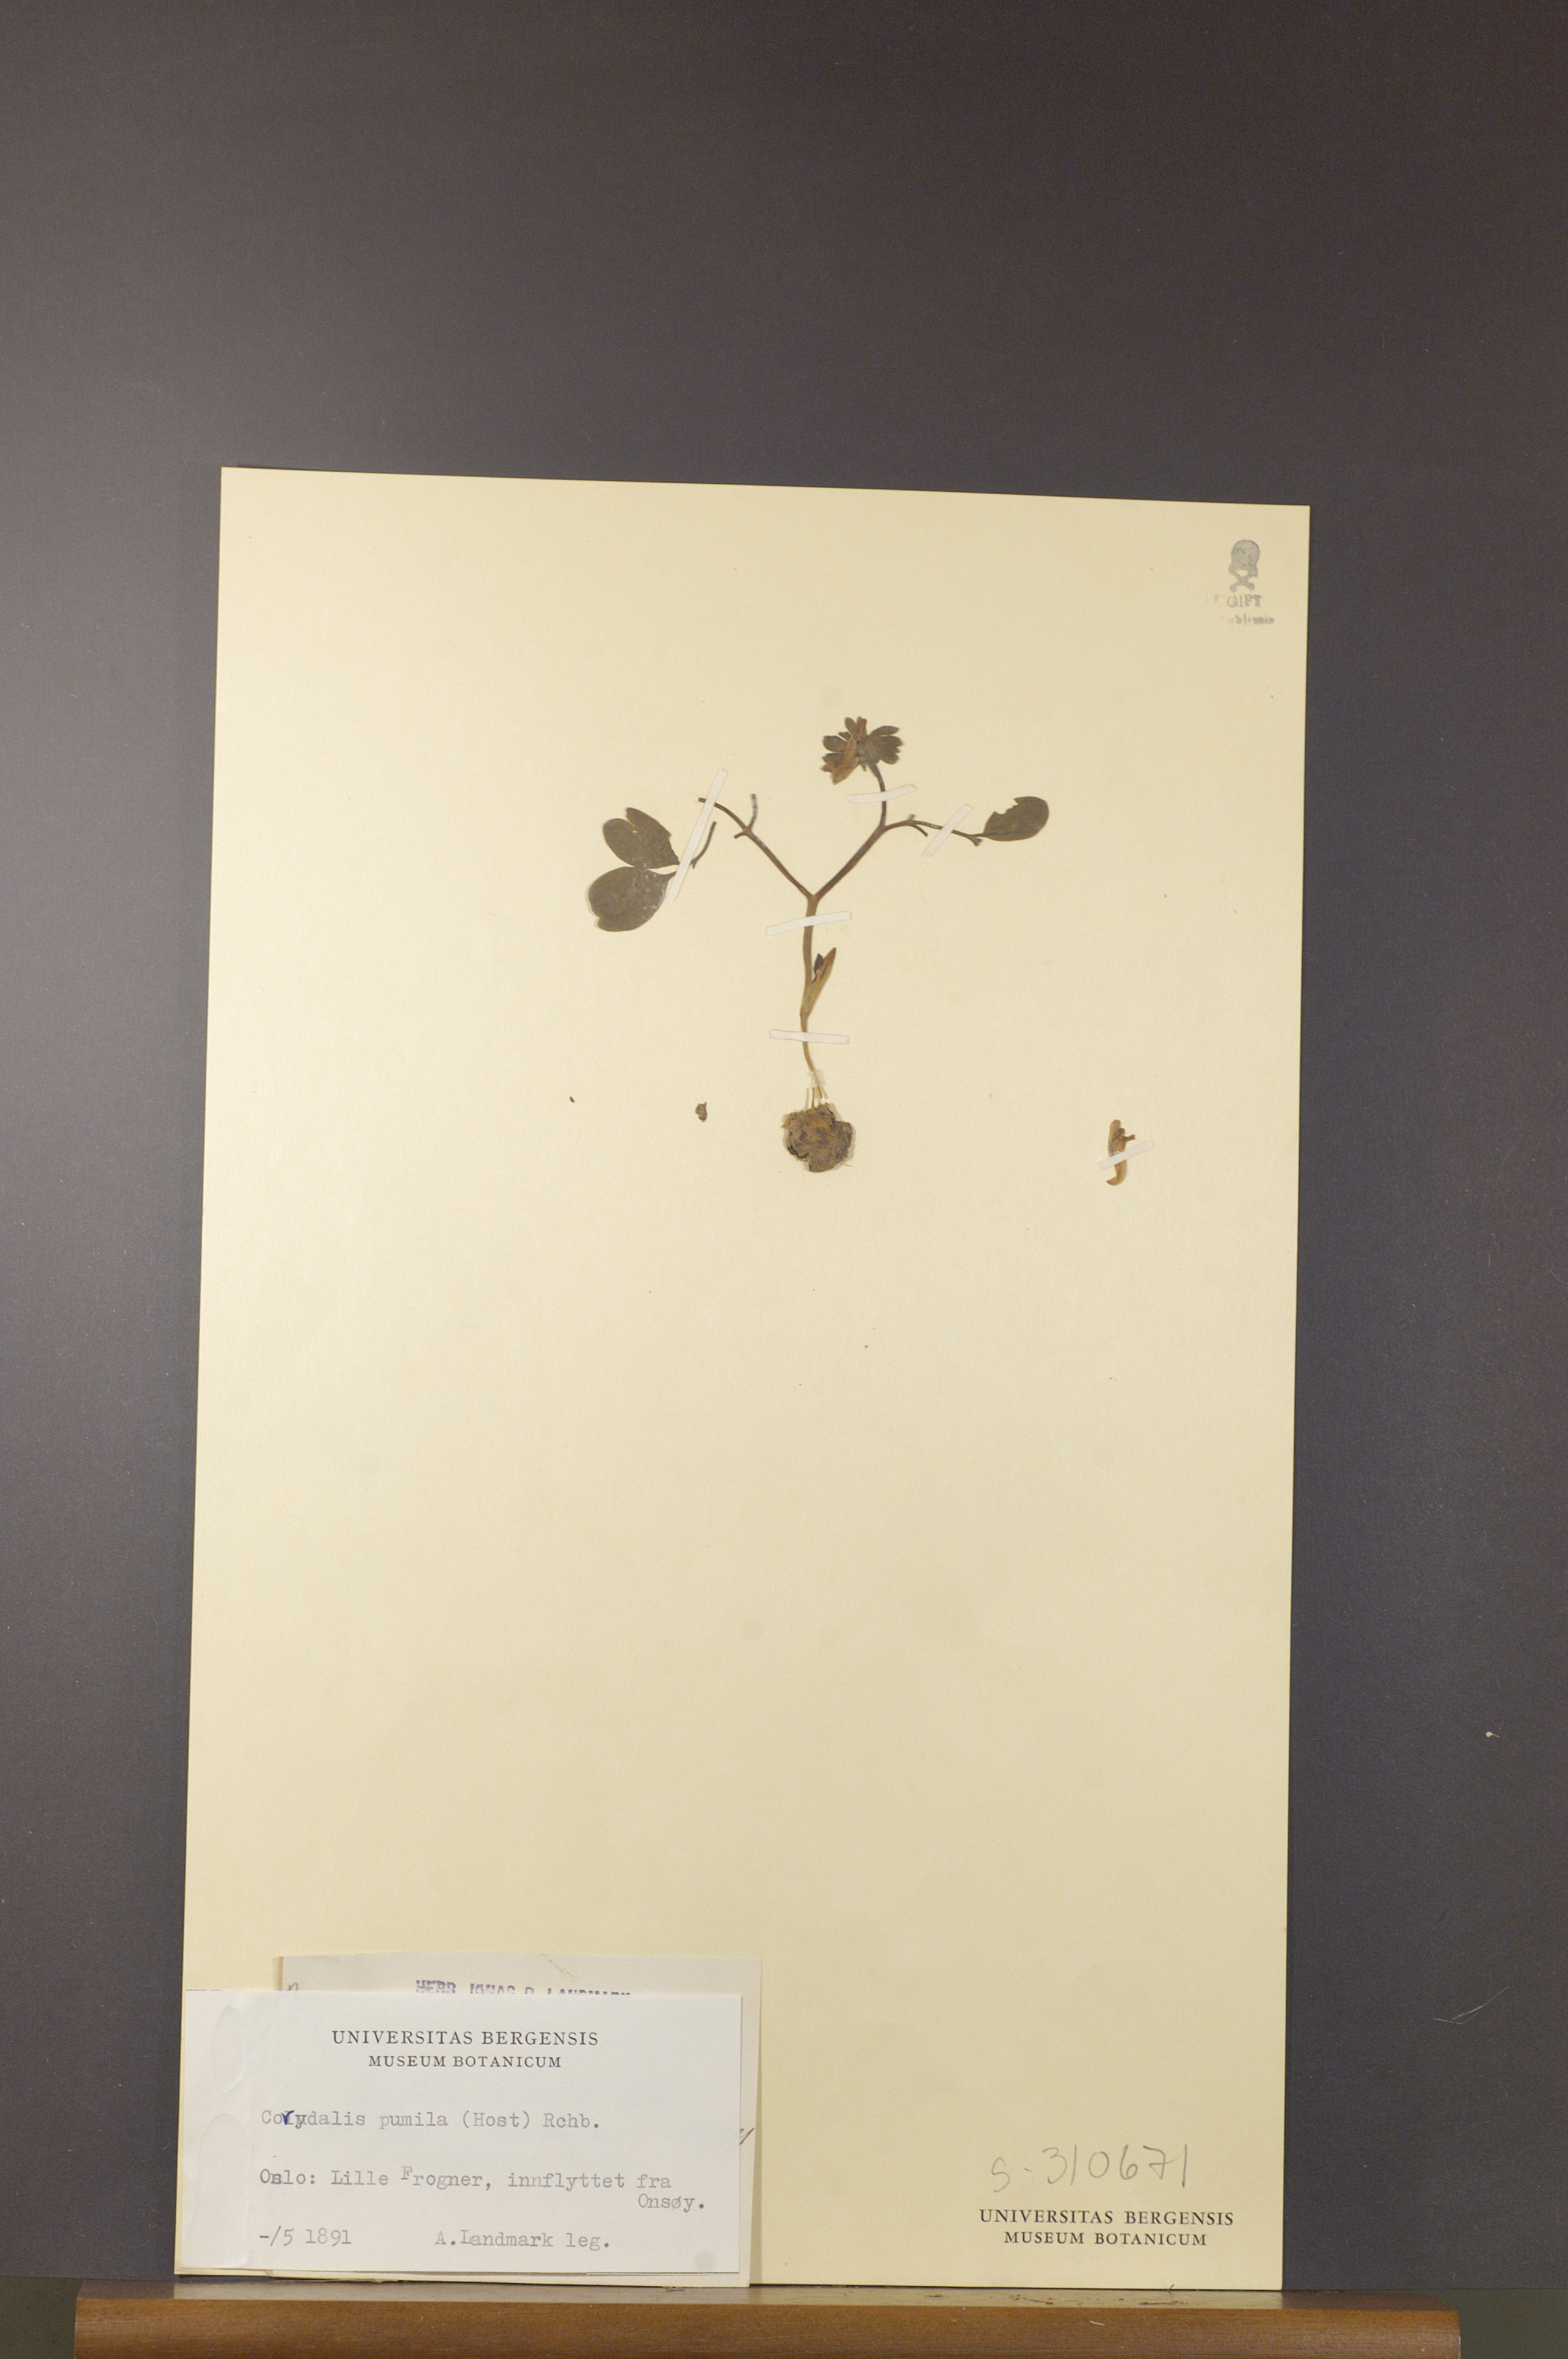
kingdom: Plantae
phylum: Tracheophyta
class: Magnoliopsida
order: Ranunculales
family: Papaveraceae
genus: Corydalis
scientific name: Corydalis pumila
